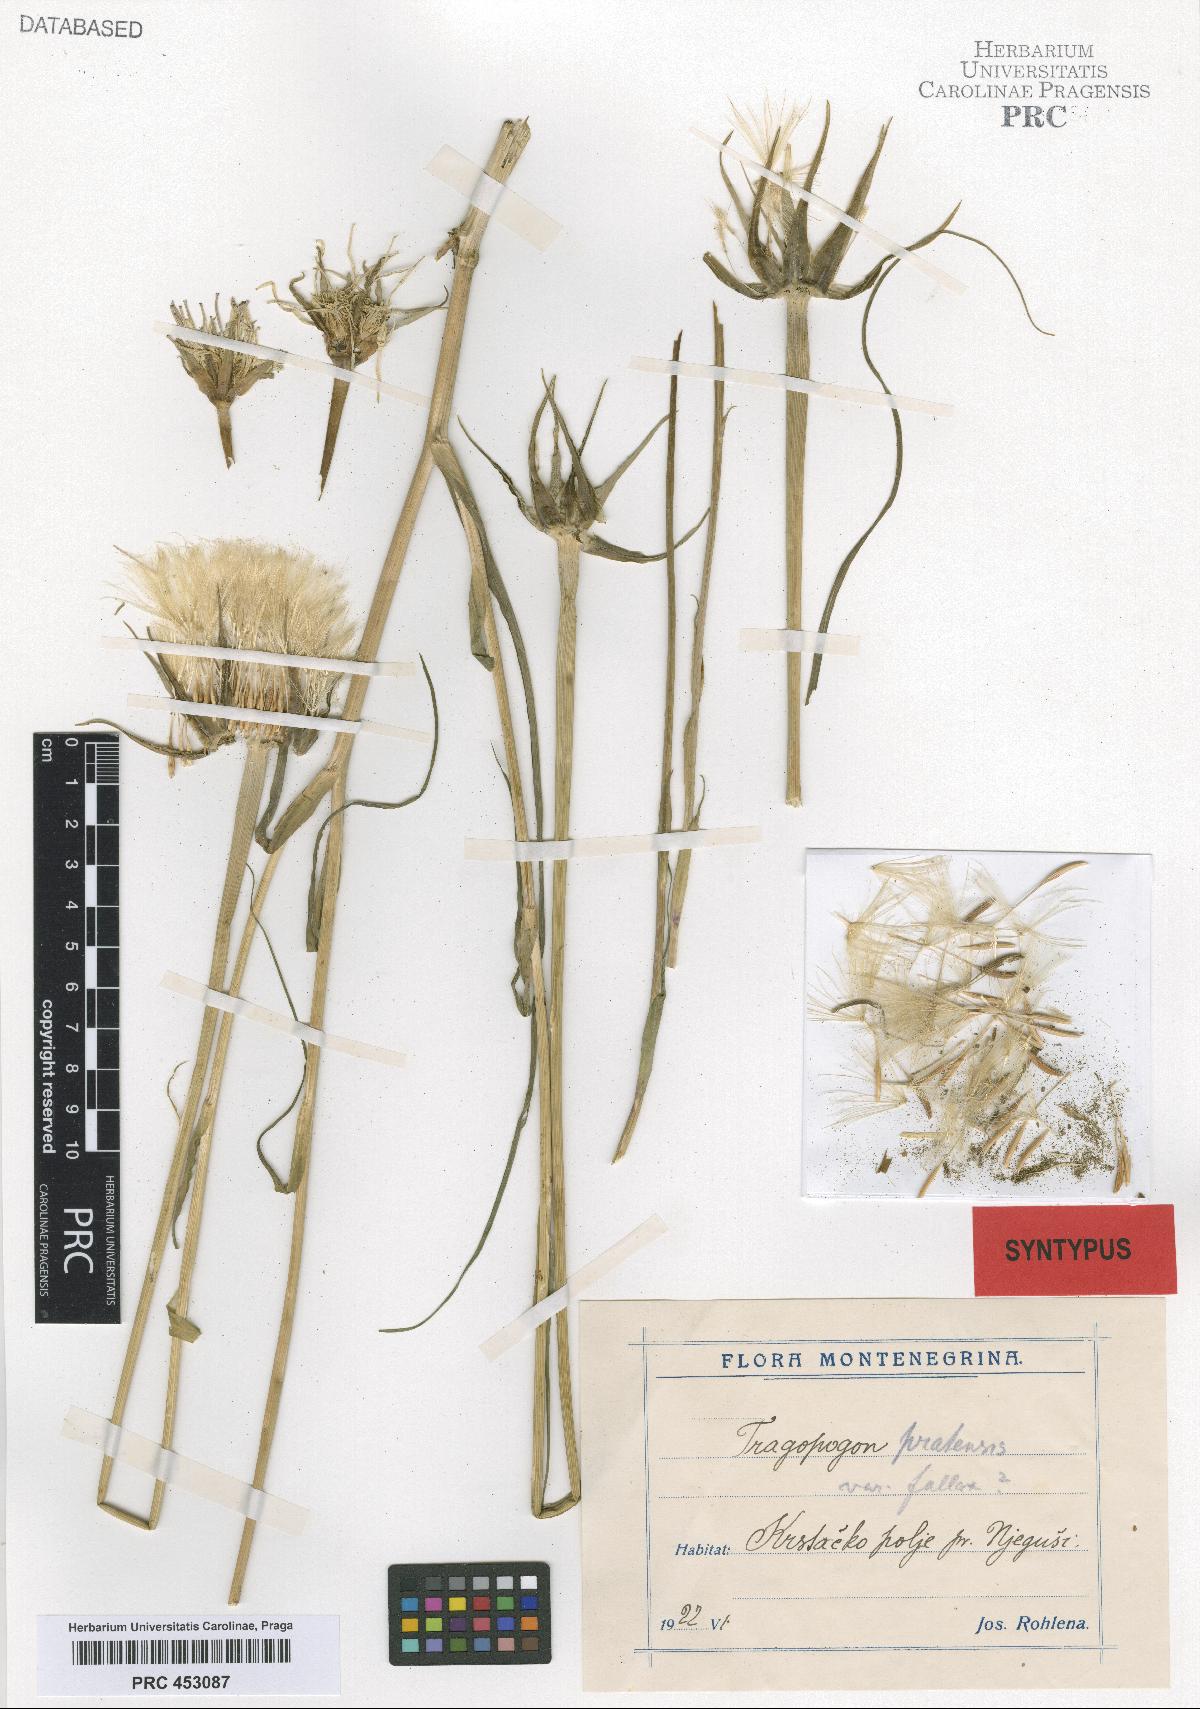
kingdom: Plantae
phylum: Tracheophyta
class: Magnoliopsida
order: Asterales
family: Asteraceae
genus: Tragopogon
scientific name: Tragopogon pratensis
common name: Goat's-beard
